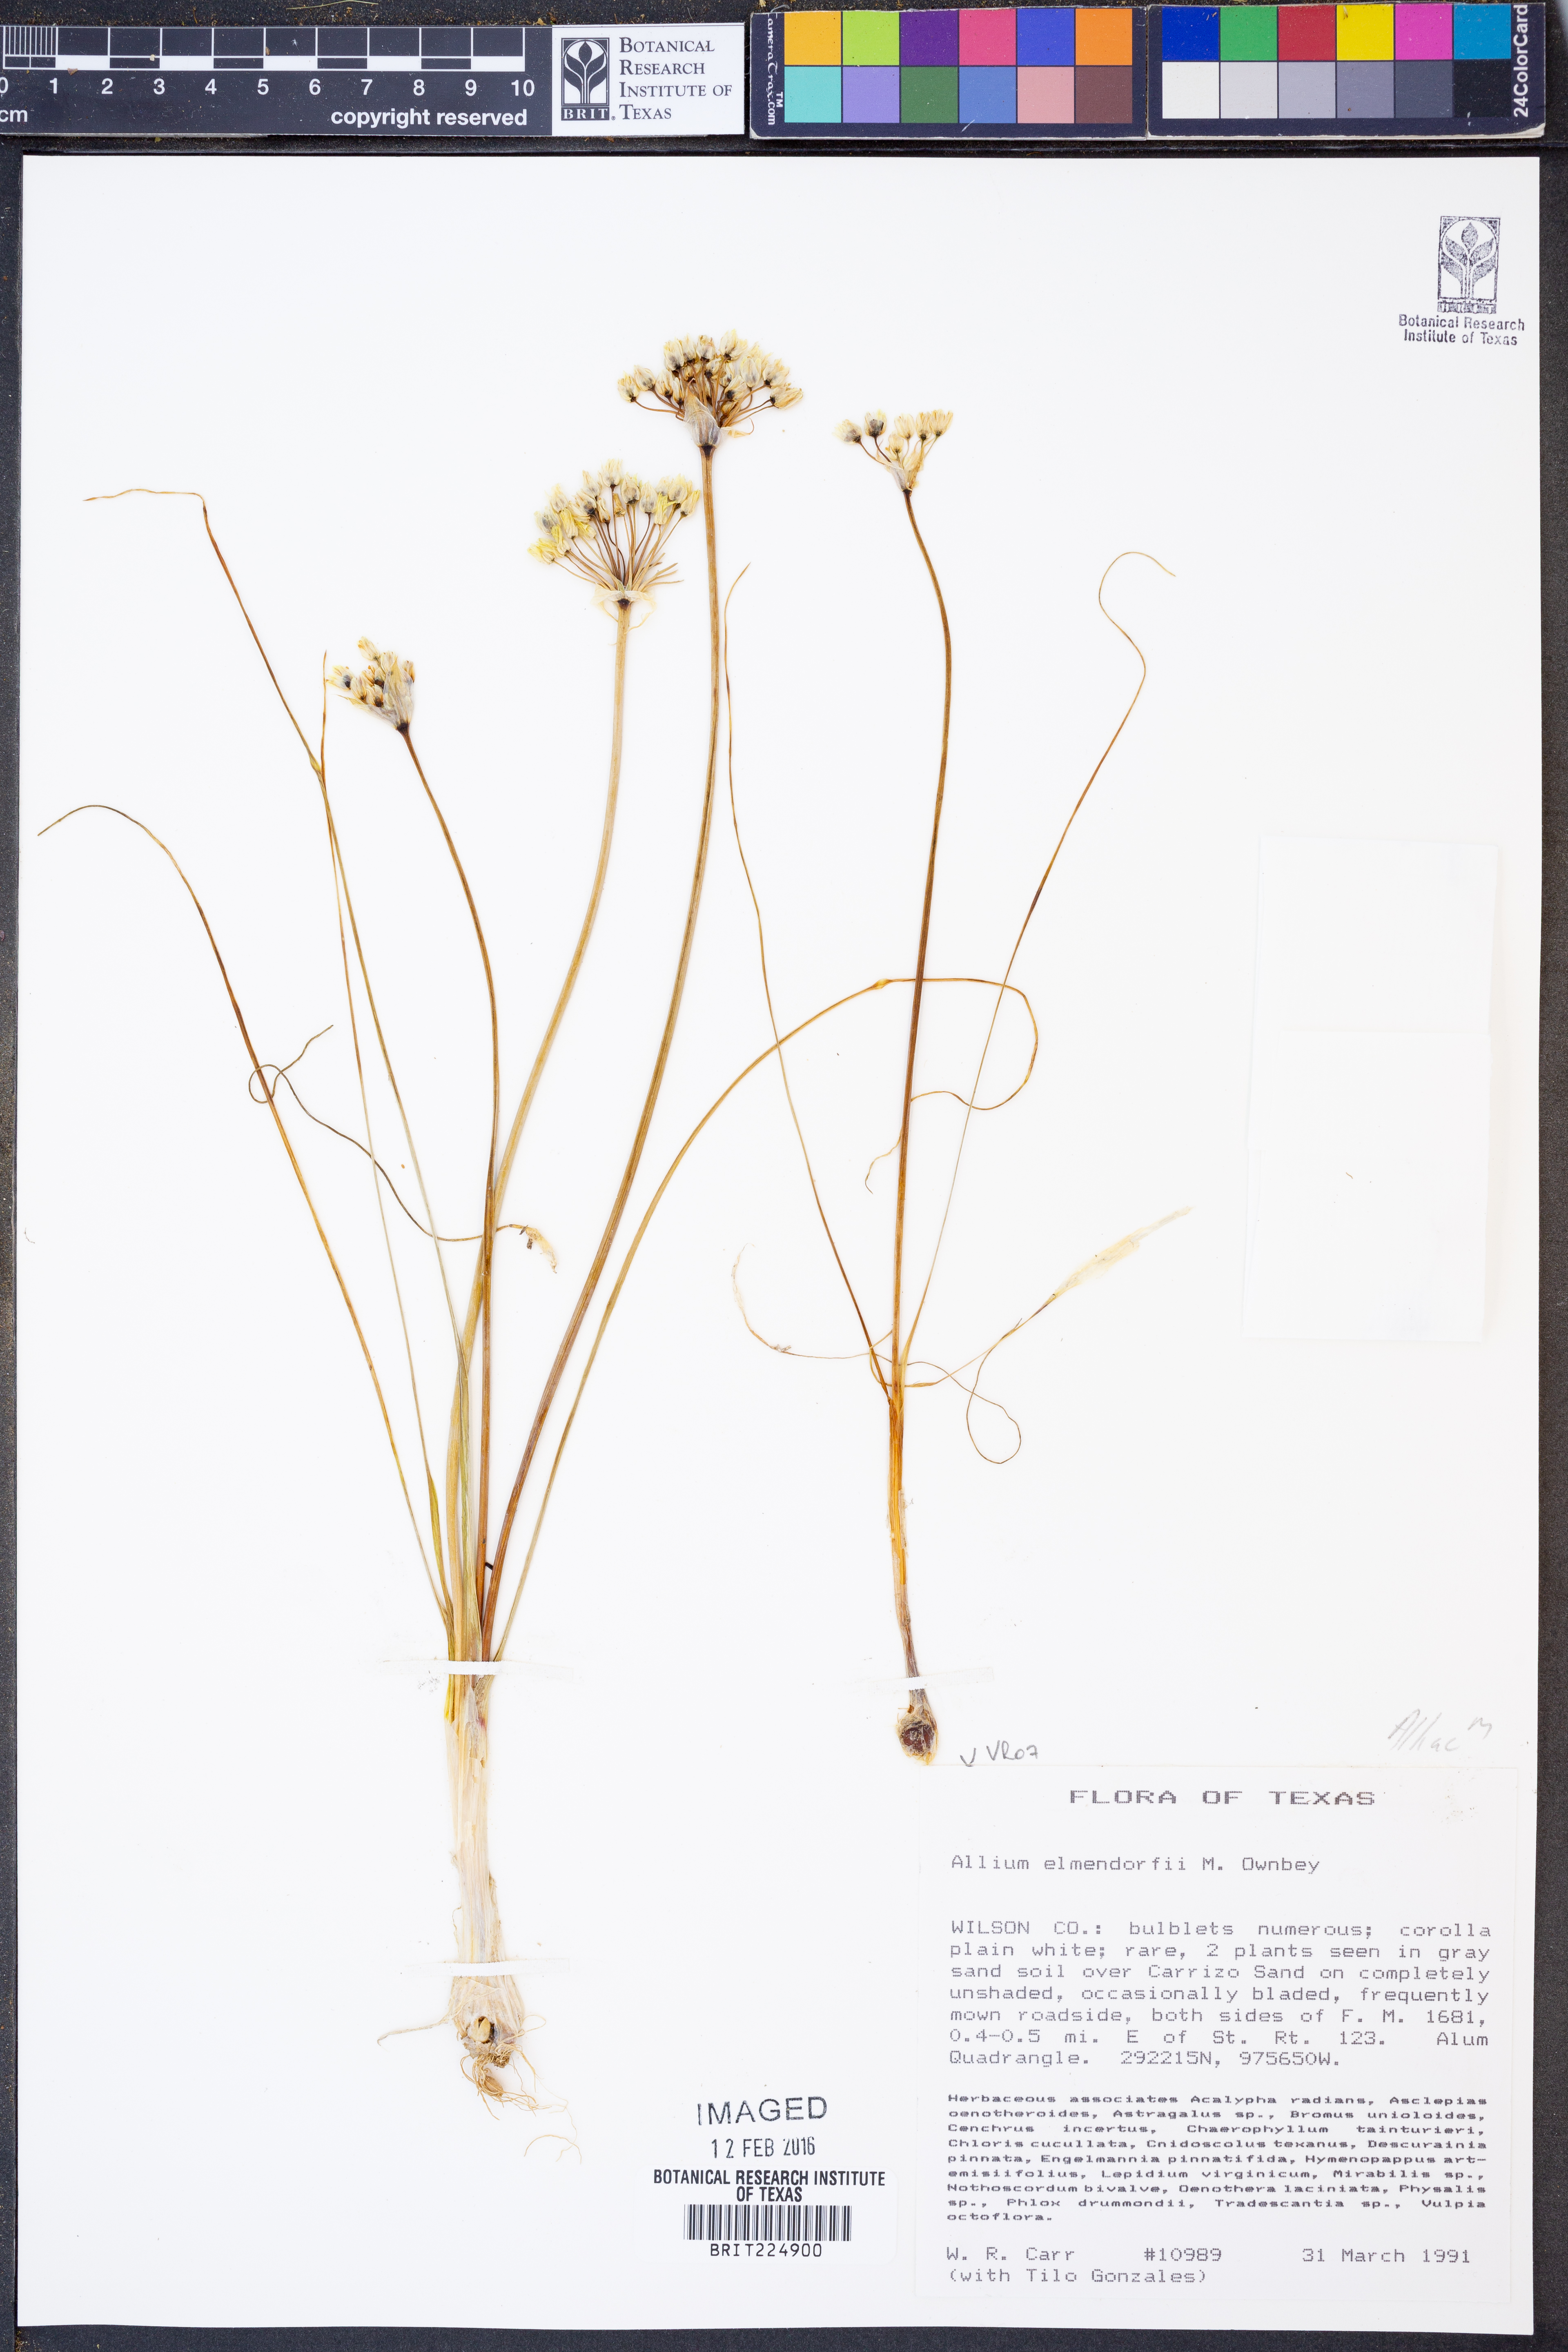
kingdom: Plantae
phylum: Tracheophyta
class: Liliopsida
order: Asparagales
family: Amaryllidaceae
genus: Allium
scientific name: Allium elmendorfii
